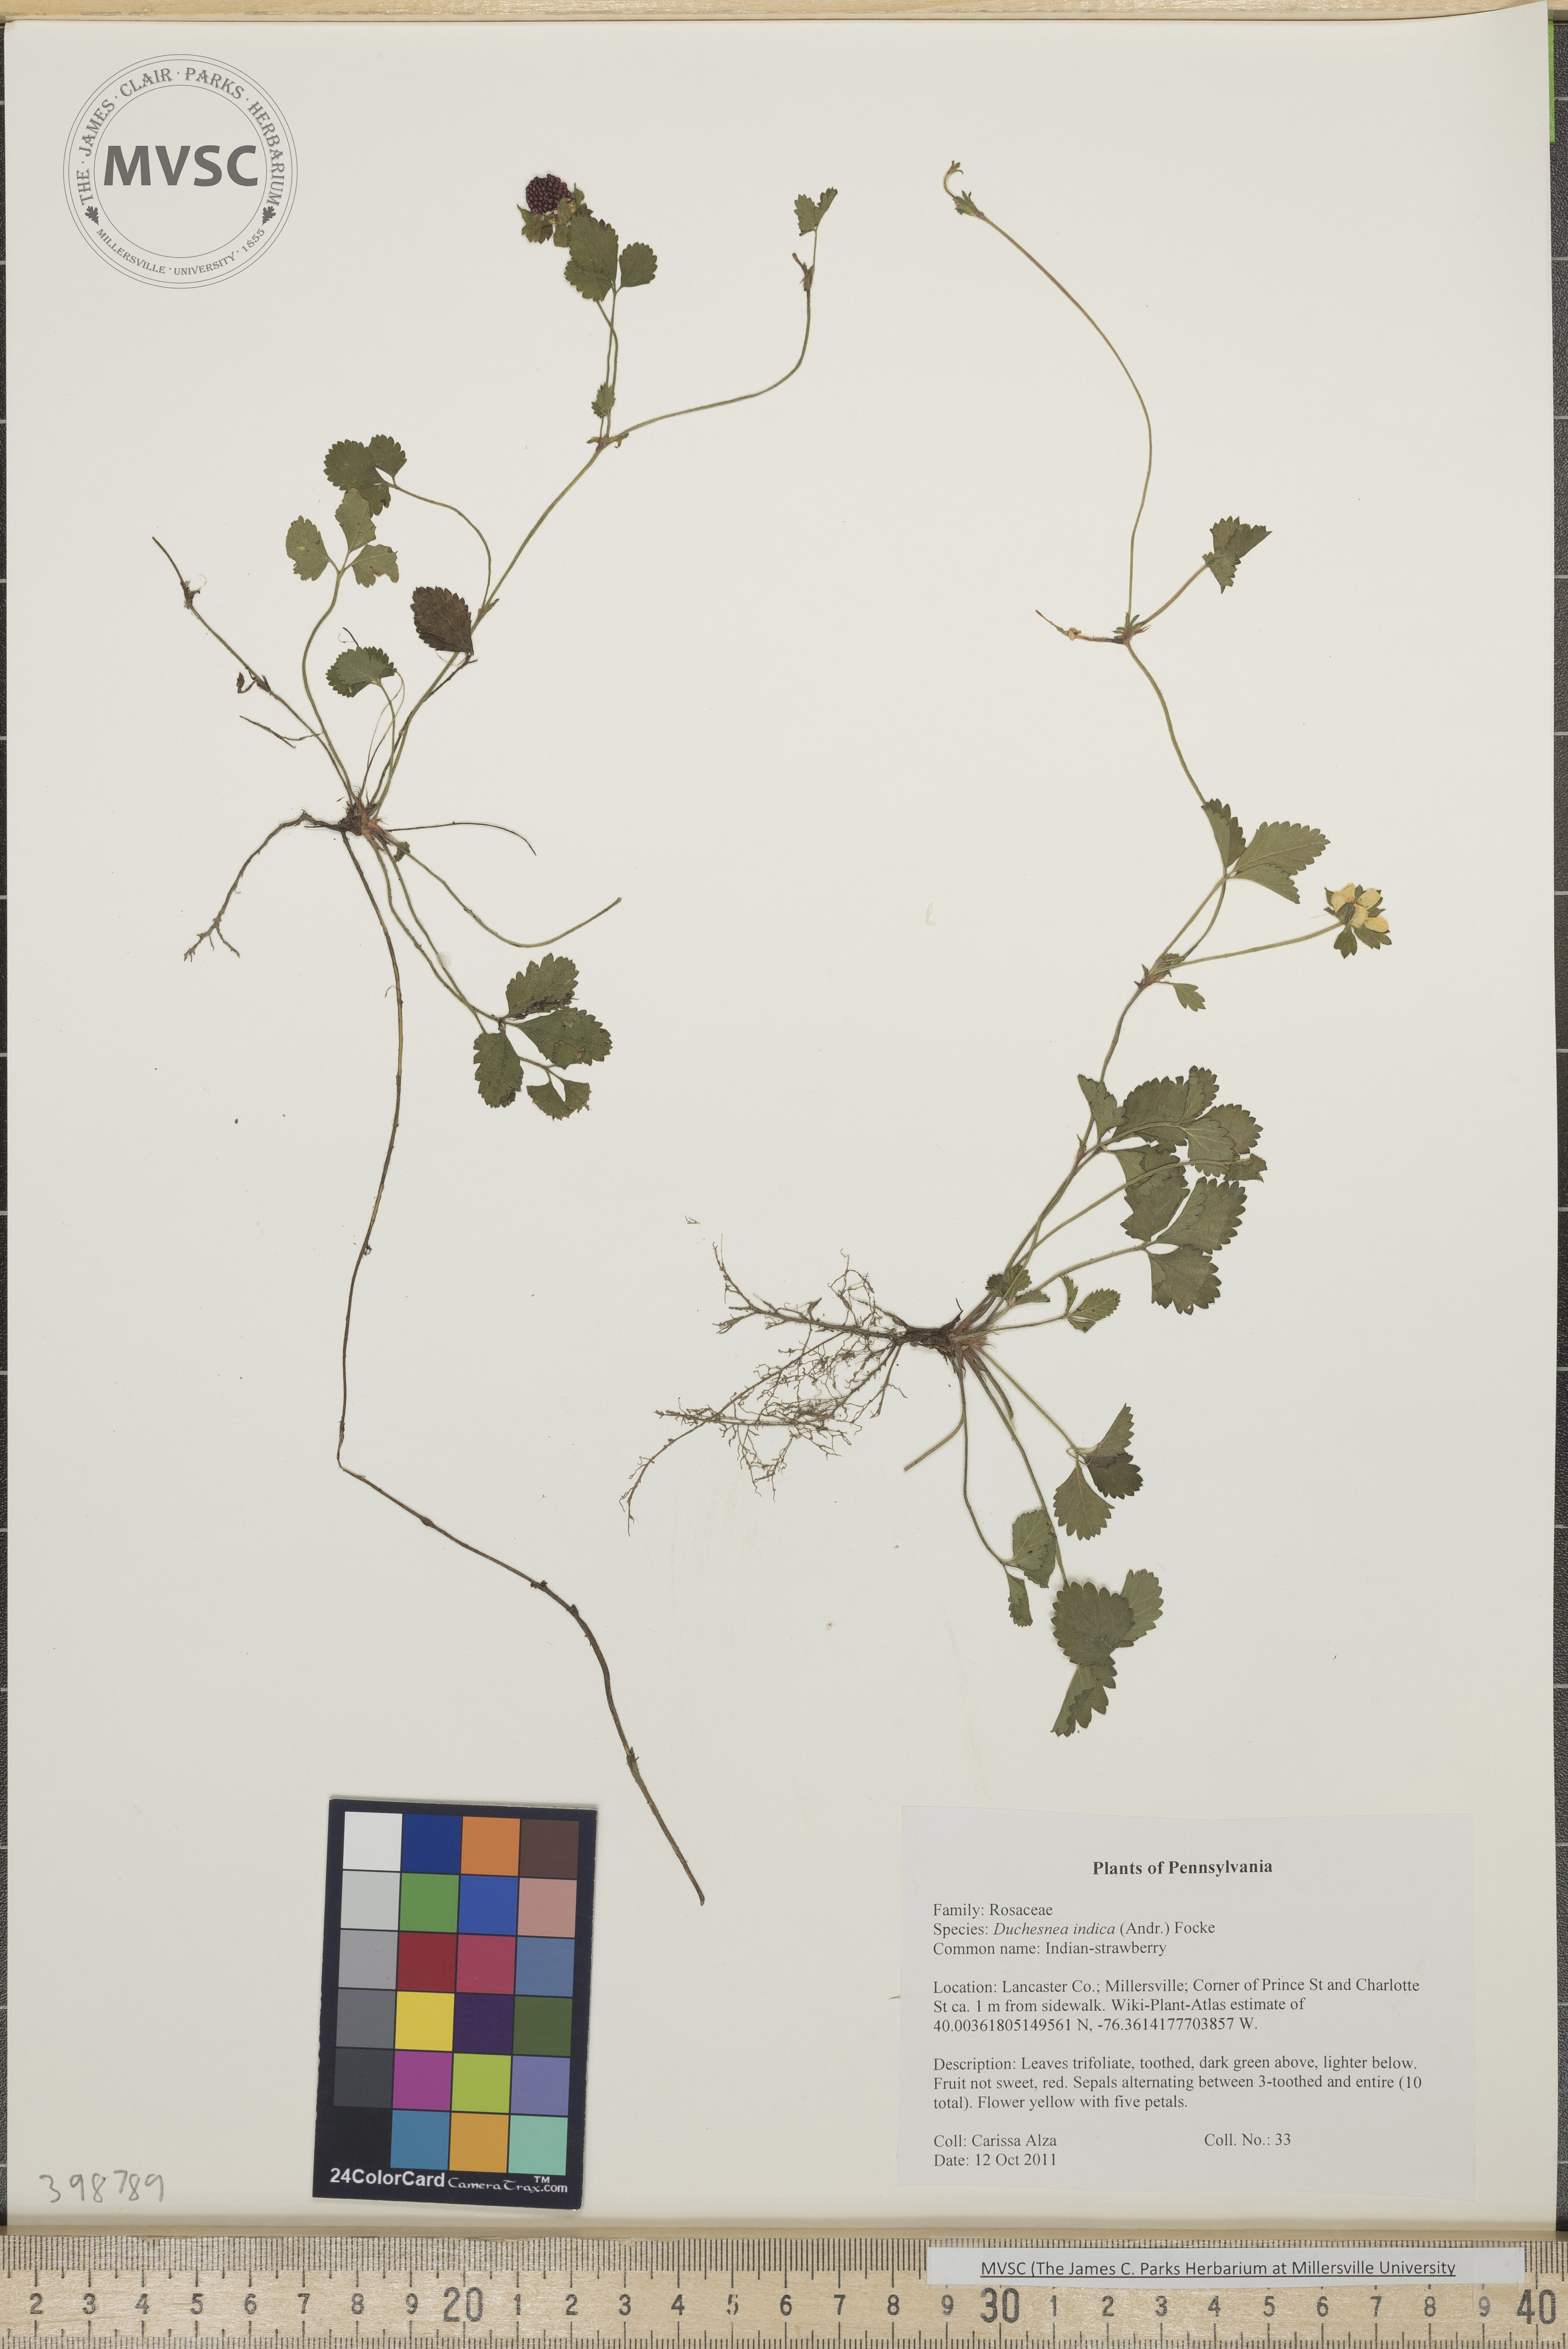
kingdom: Plantae
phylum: Tracheophyta
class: Magnoliopsida
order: Rosales
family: Rosaceae
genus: Potentilla
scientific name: Potentilla indica
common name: Indian strawberry
